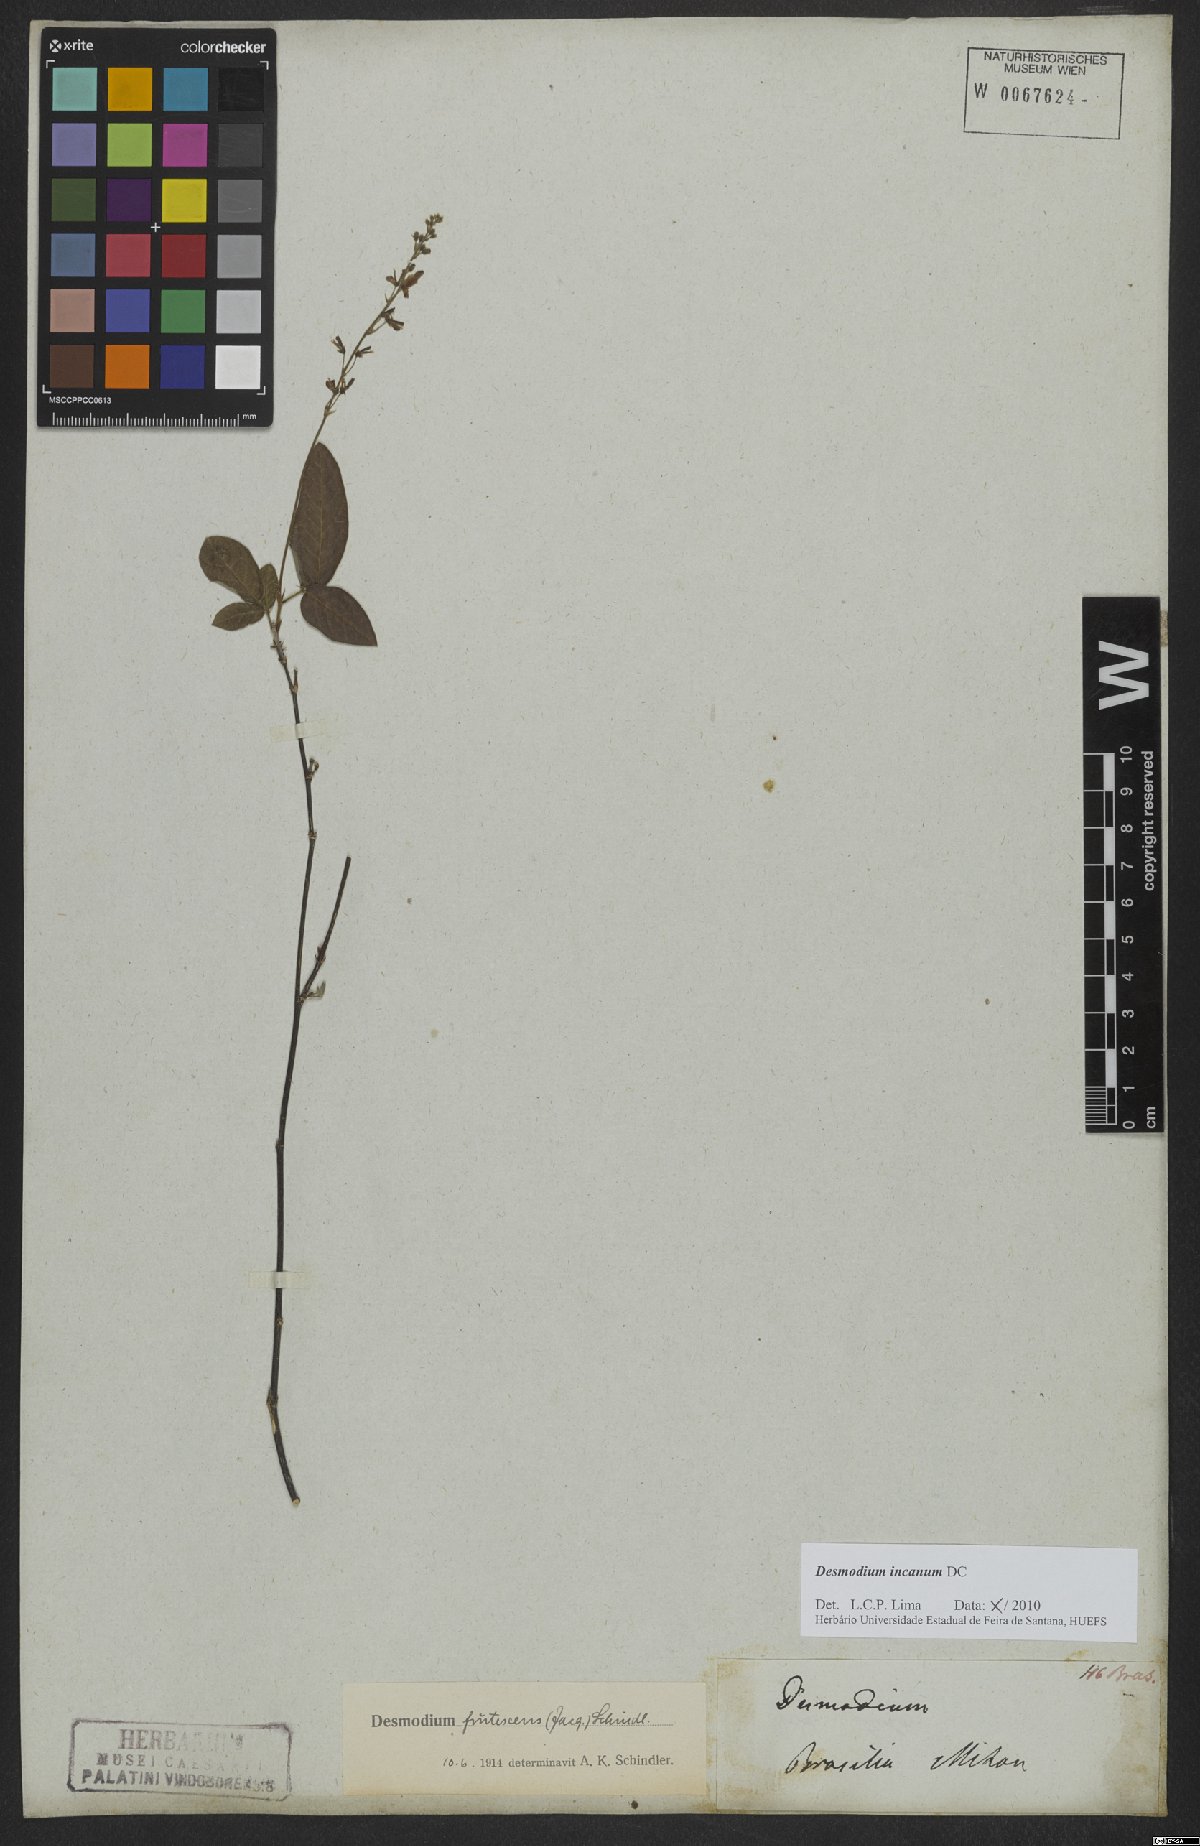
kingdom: Plantae
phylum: Tracheophyta
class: Magnoliopsida
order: Fabales
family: Fabaceae
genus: Desmodium
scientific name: Desmodium incanum
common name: Tickclover
